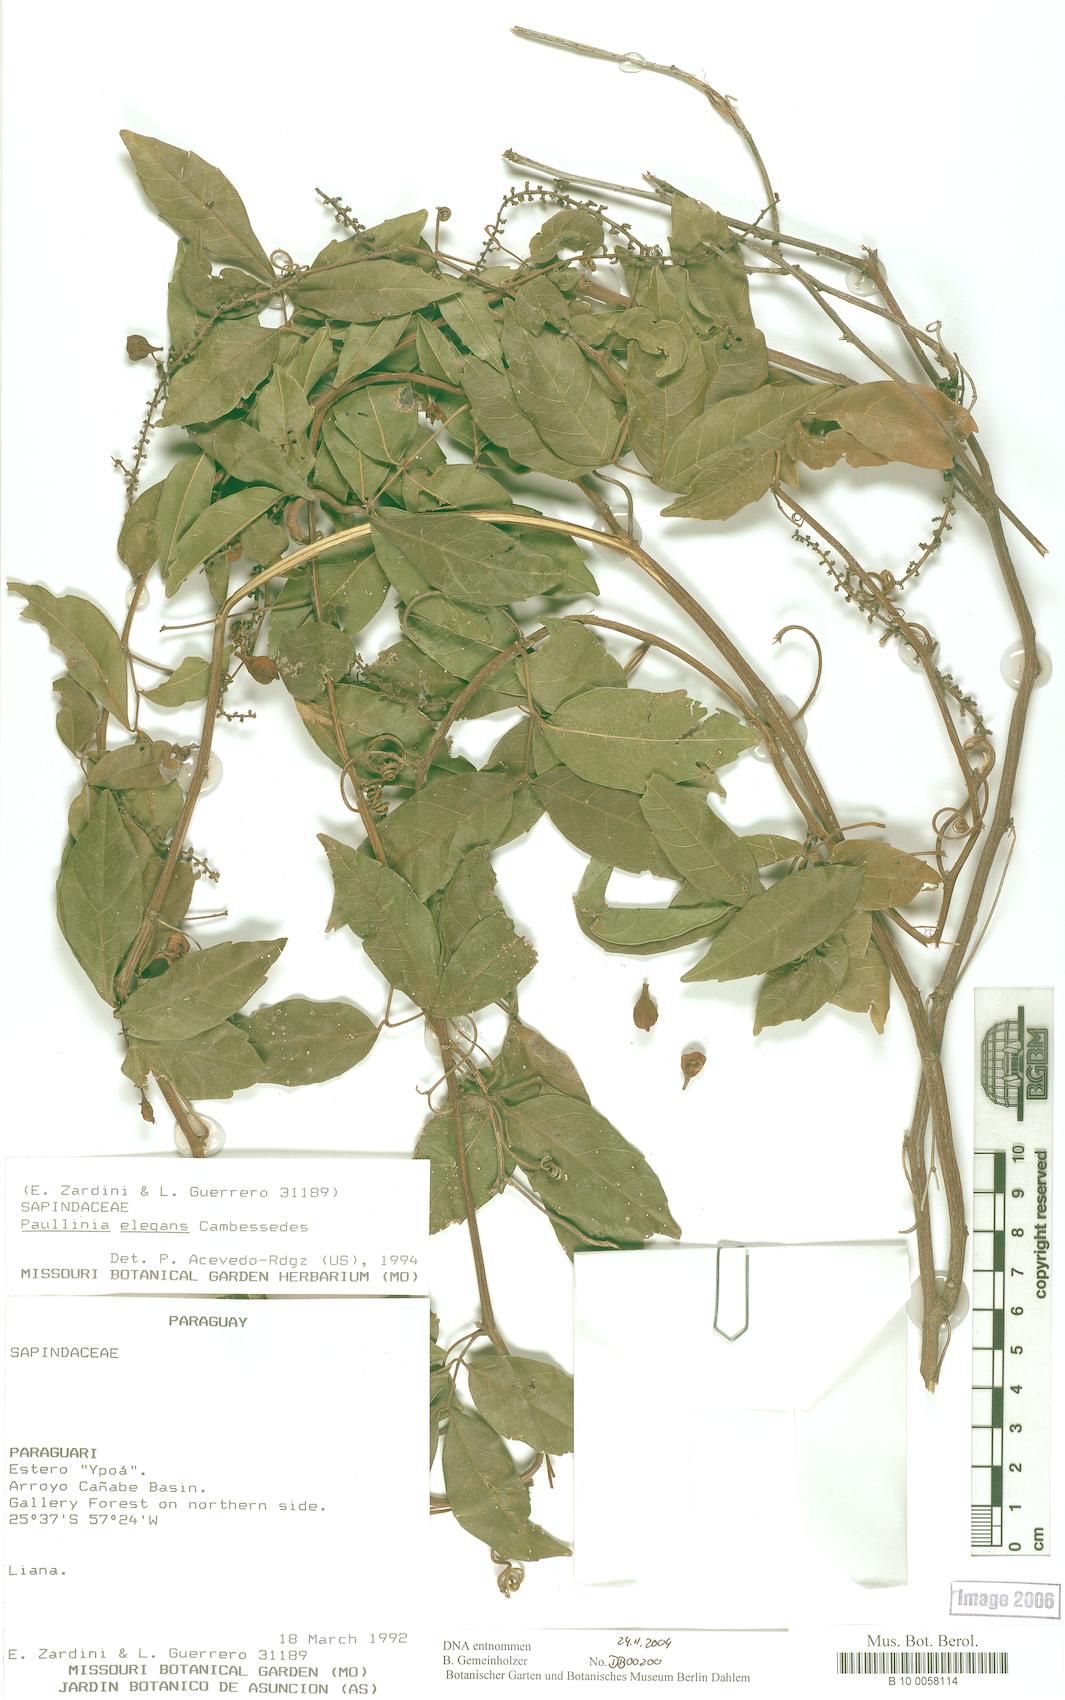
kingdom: Plantae
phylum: Tracheophyta
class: Magnoliopsida
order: Sapindales
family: Sapindaceae
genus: Paullinia
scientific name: Paullinia elegans
